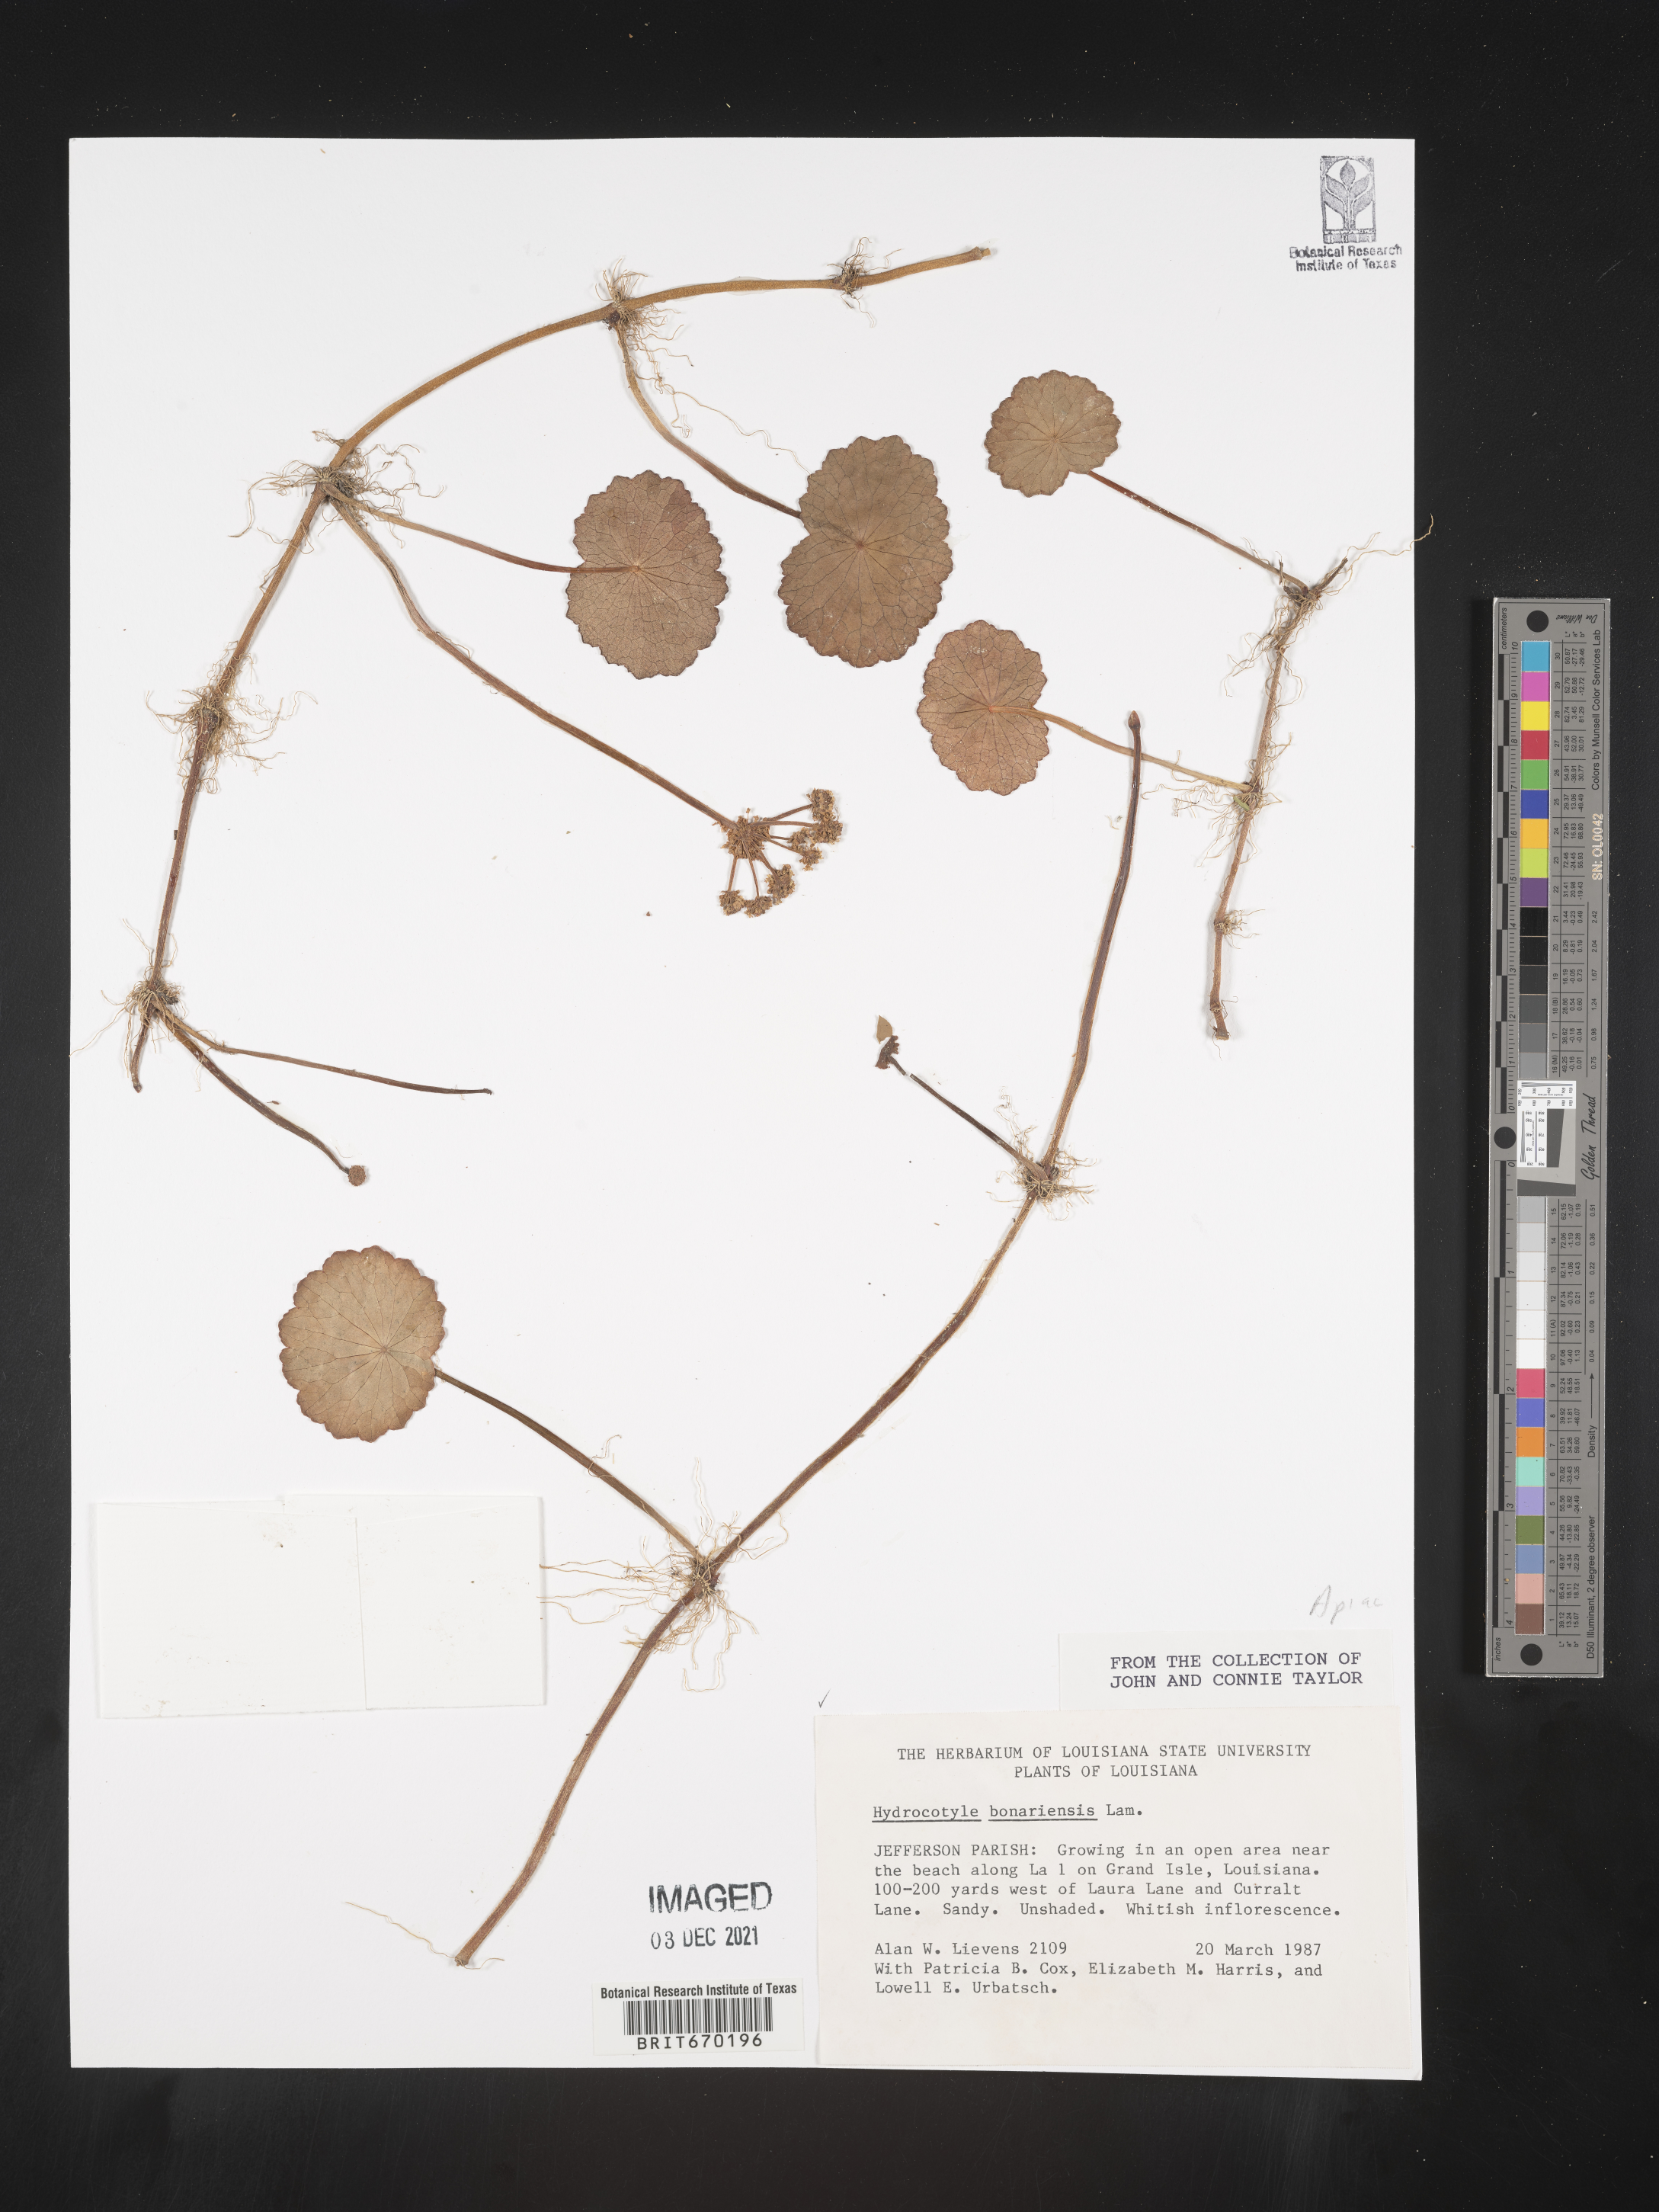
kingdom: Plantae
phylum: Tracheophyta
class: Magnoliopsida
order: Apiales
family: Araliaceae
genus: Hydrocotyle
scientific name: Hydrocotyle bonariensis
